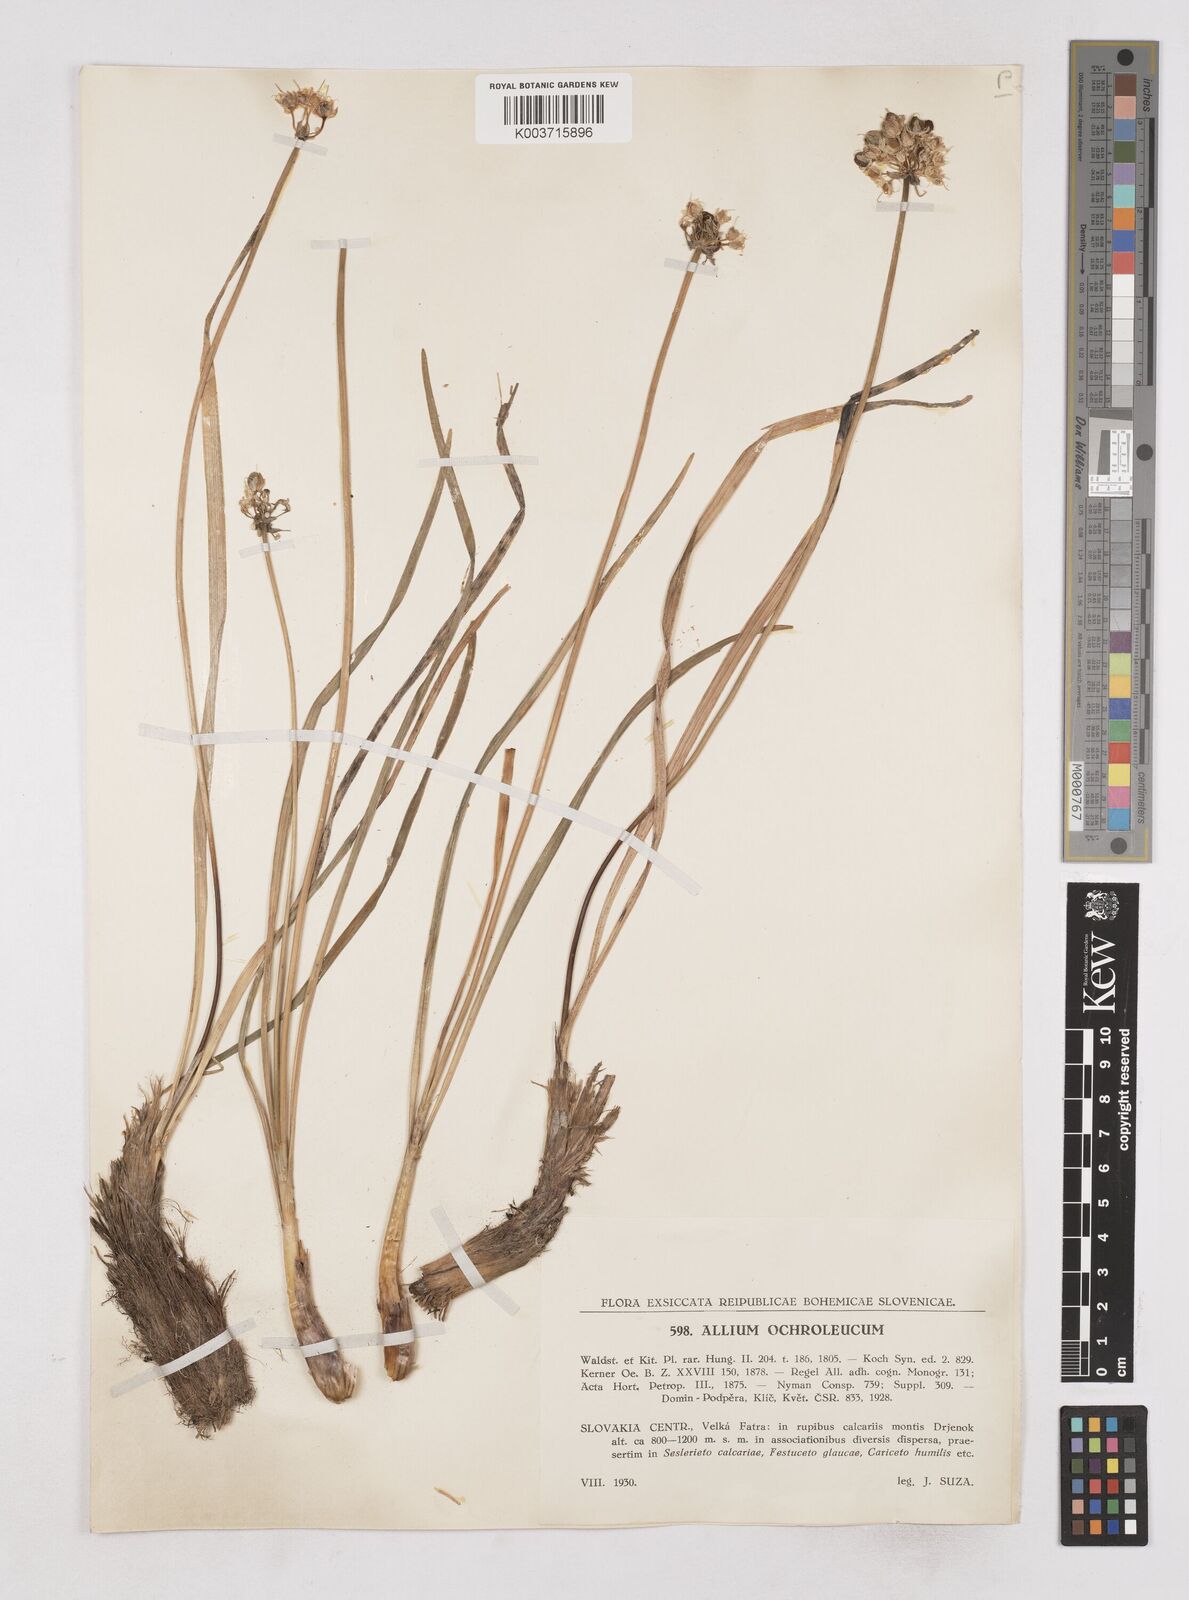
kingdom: Plantae
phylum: Tracheophyta
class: Liliopsida
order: Asparagales
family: Amaryllidaceae
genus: Allium
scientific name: Allium ericetorum
